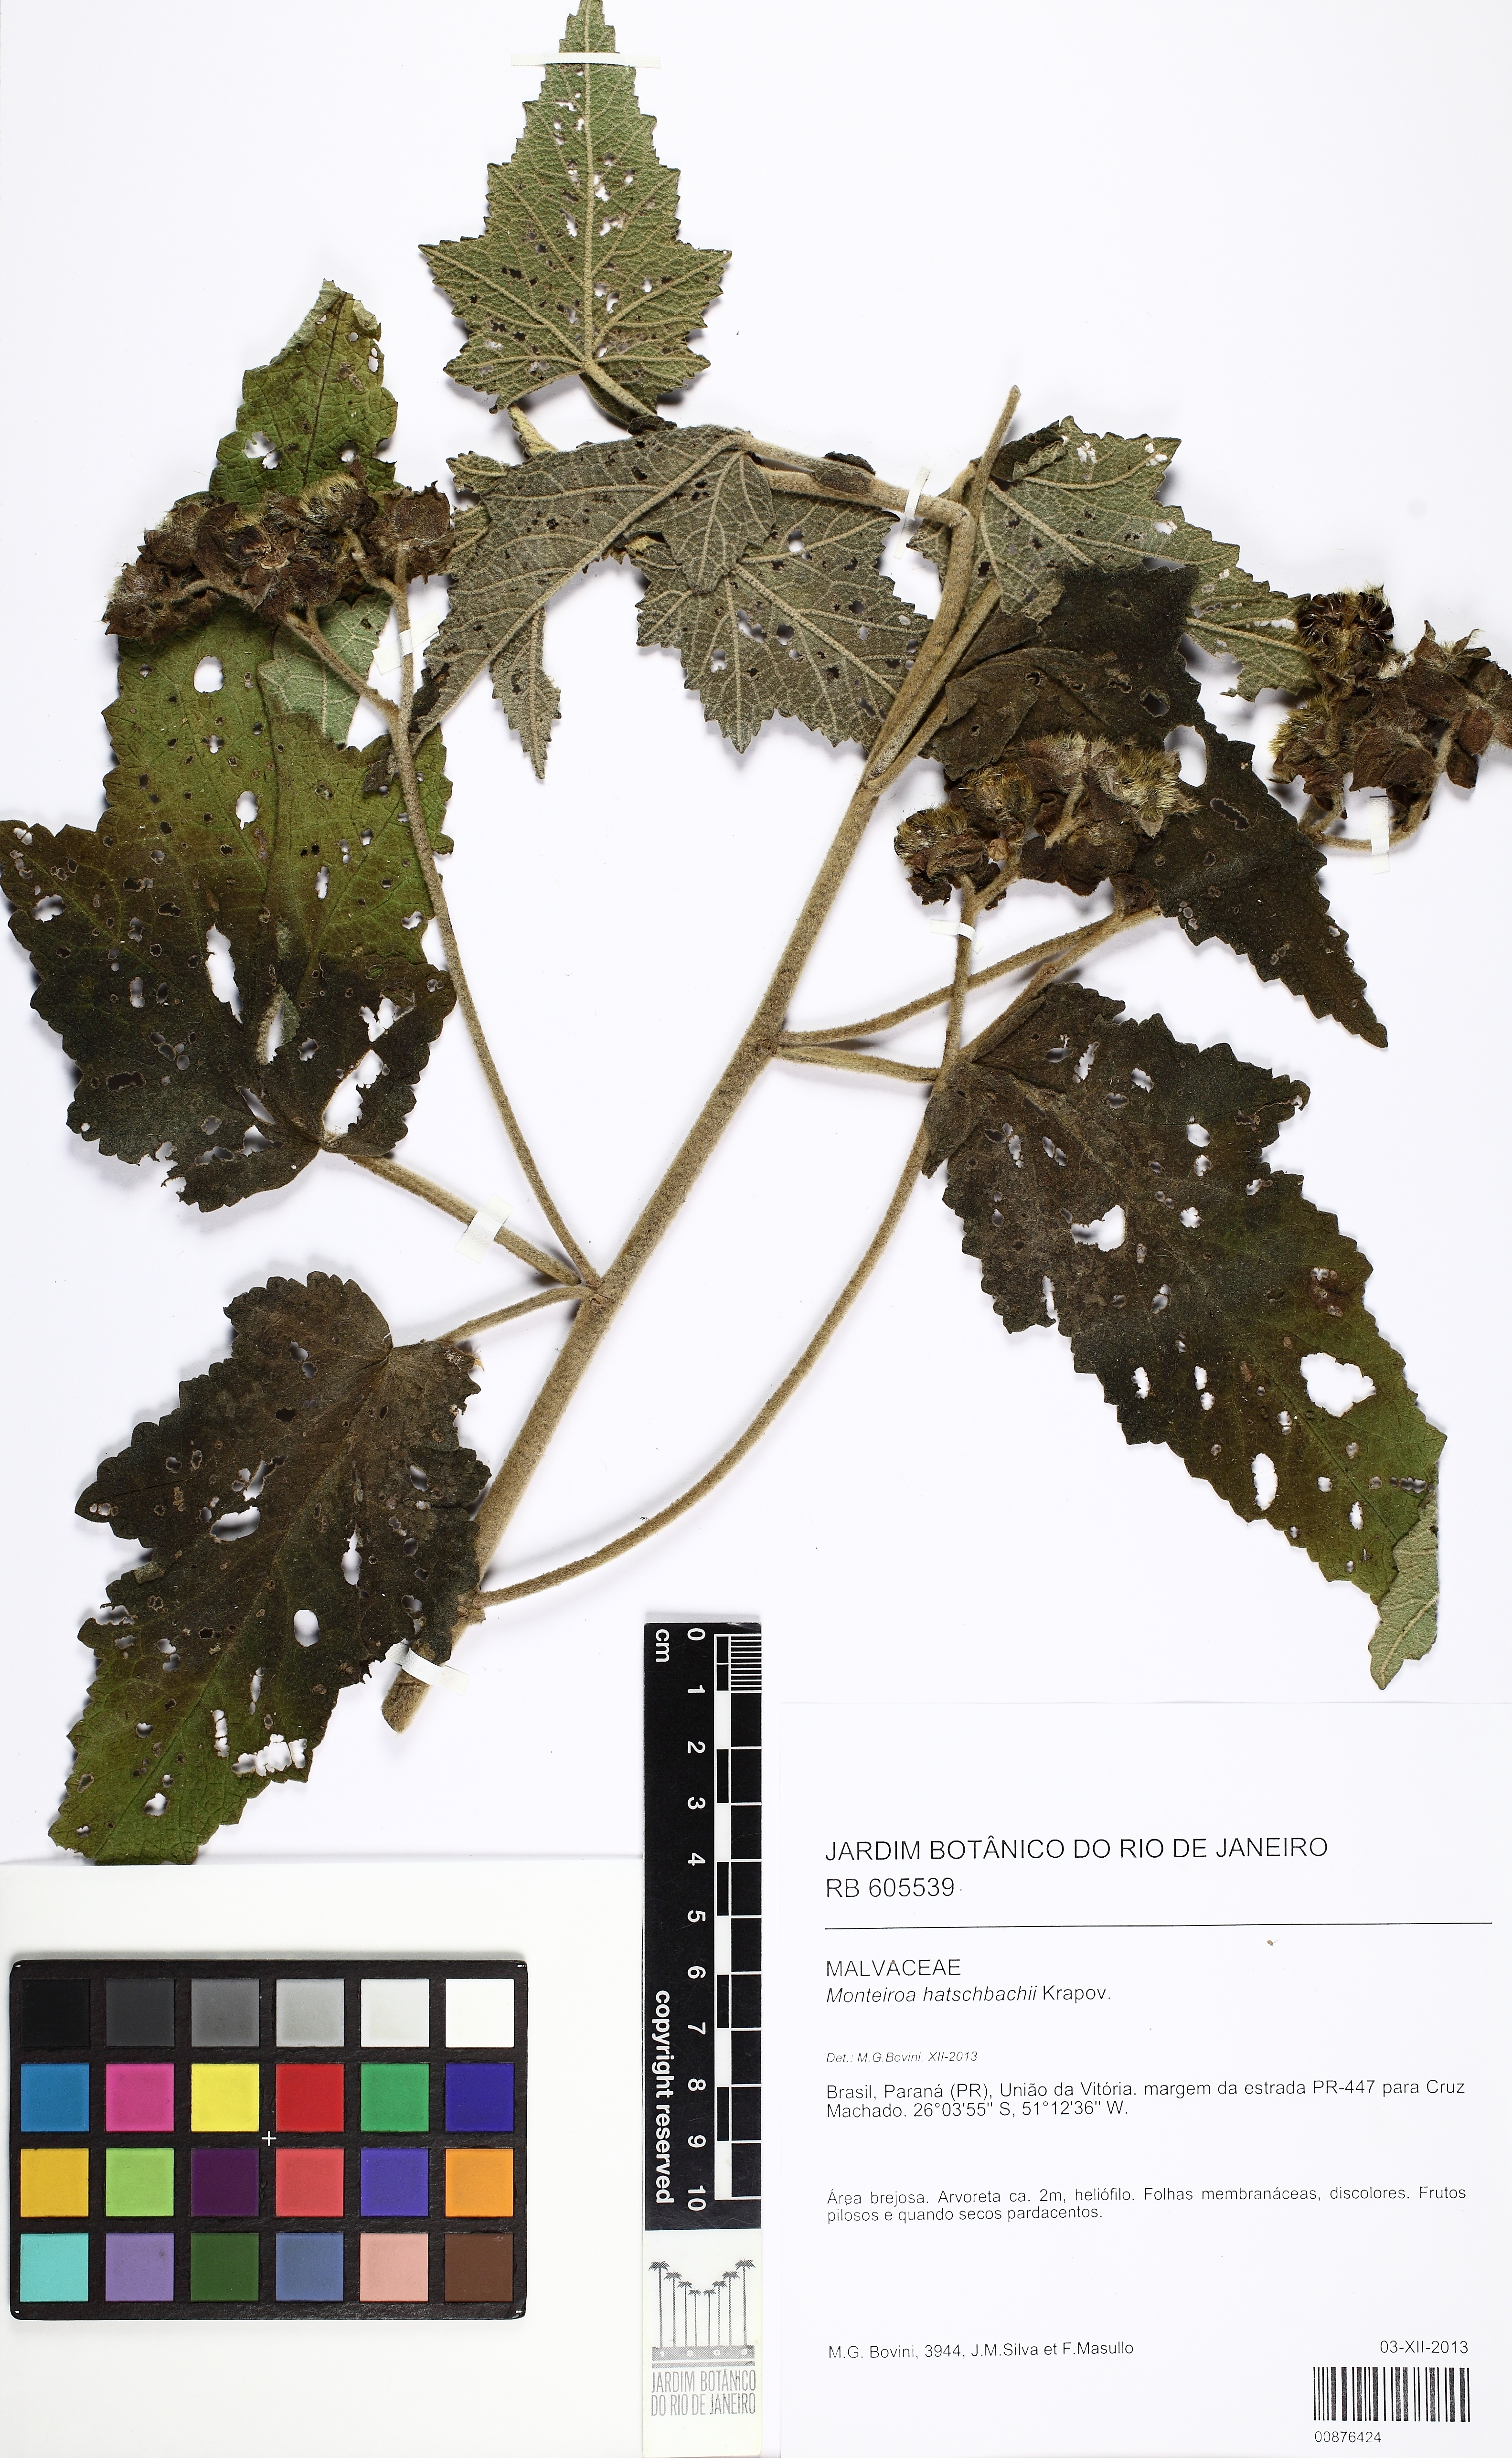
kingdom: Plantae
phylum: Tracheophyta
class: Magnoliopsida
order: Malvales
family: Malvaceae
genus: Monteiroa
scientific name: Monteiroa hatschbachii
